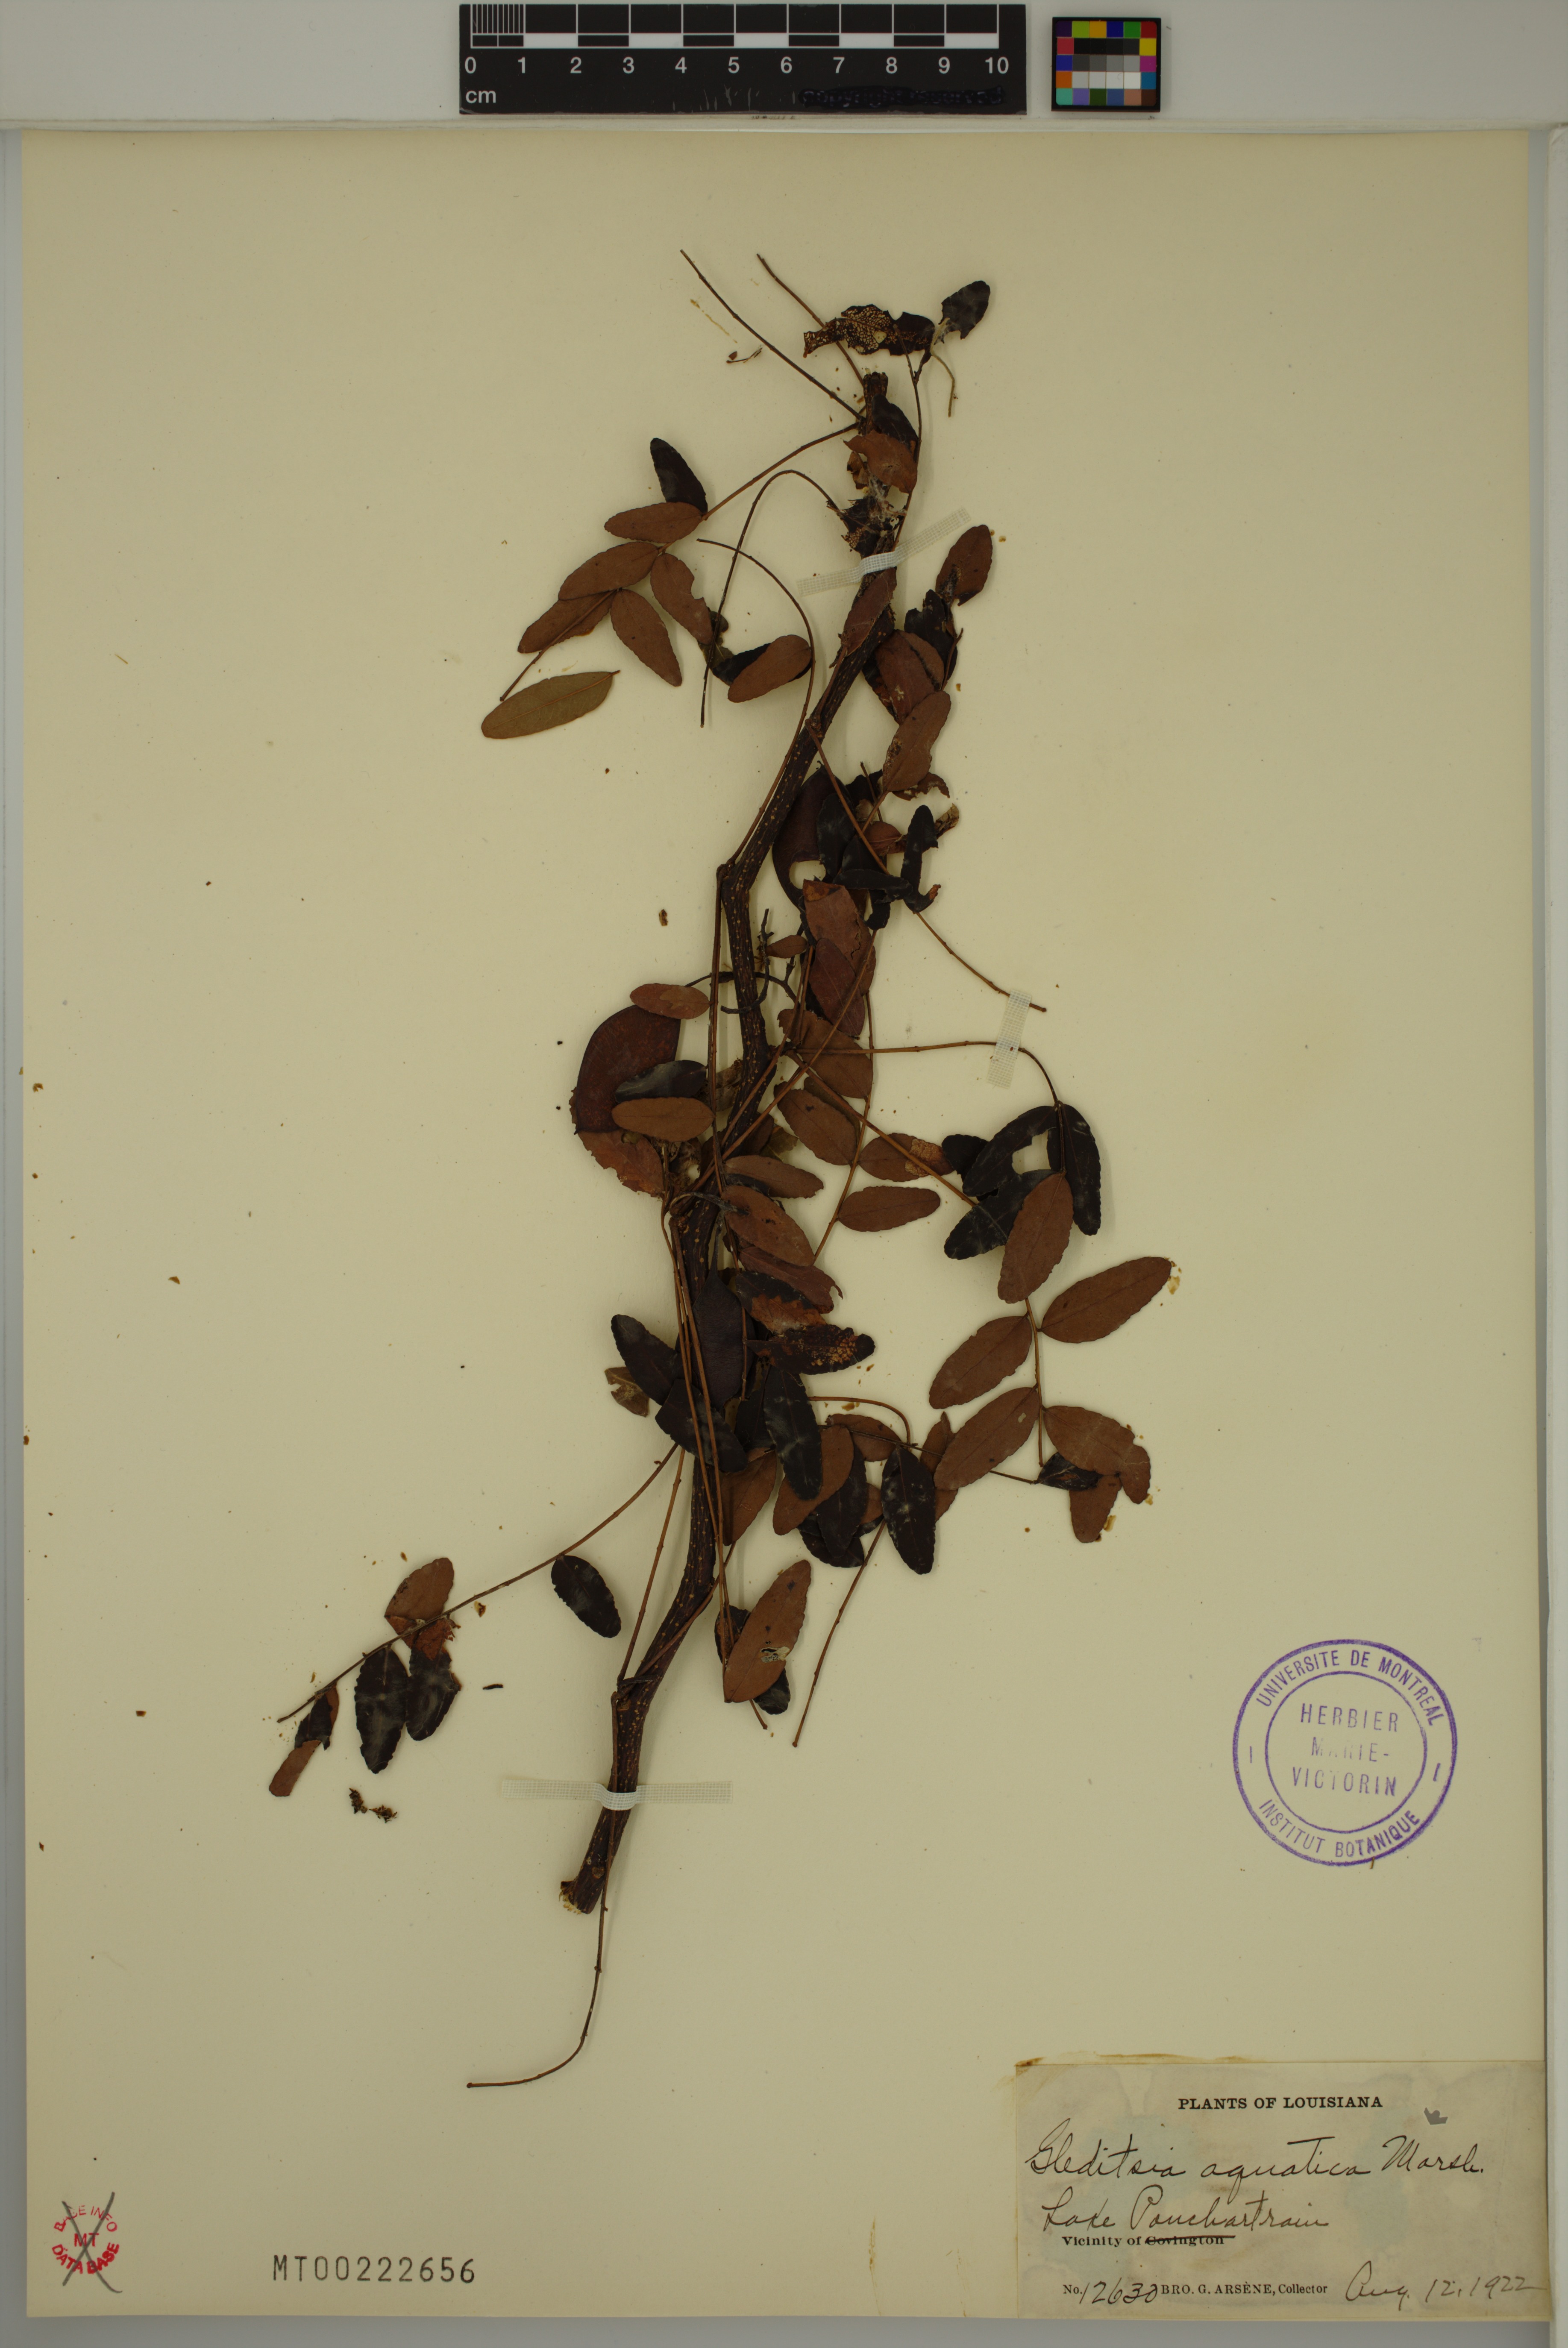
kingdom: Plantae
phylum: Tracheophyta
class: Magnoliopsida
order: Fabales
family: Fabaceae
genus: Gleditsia
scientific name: Gleditsia aquatica
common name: Swamp-locust
